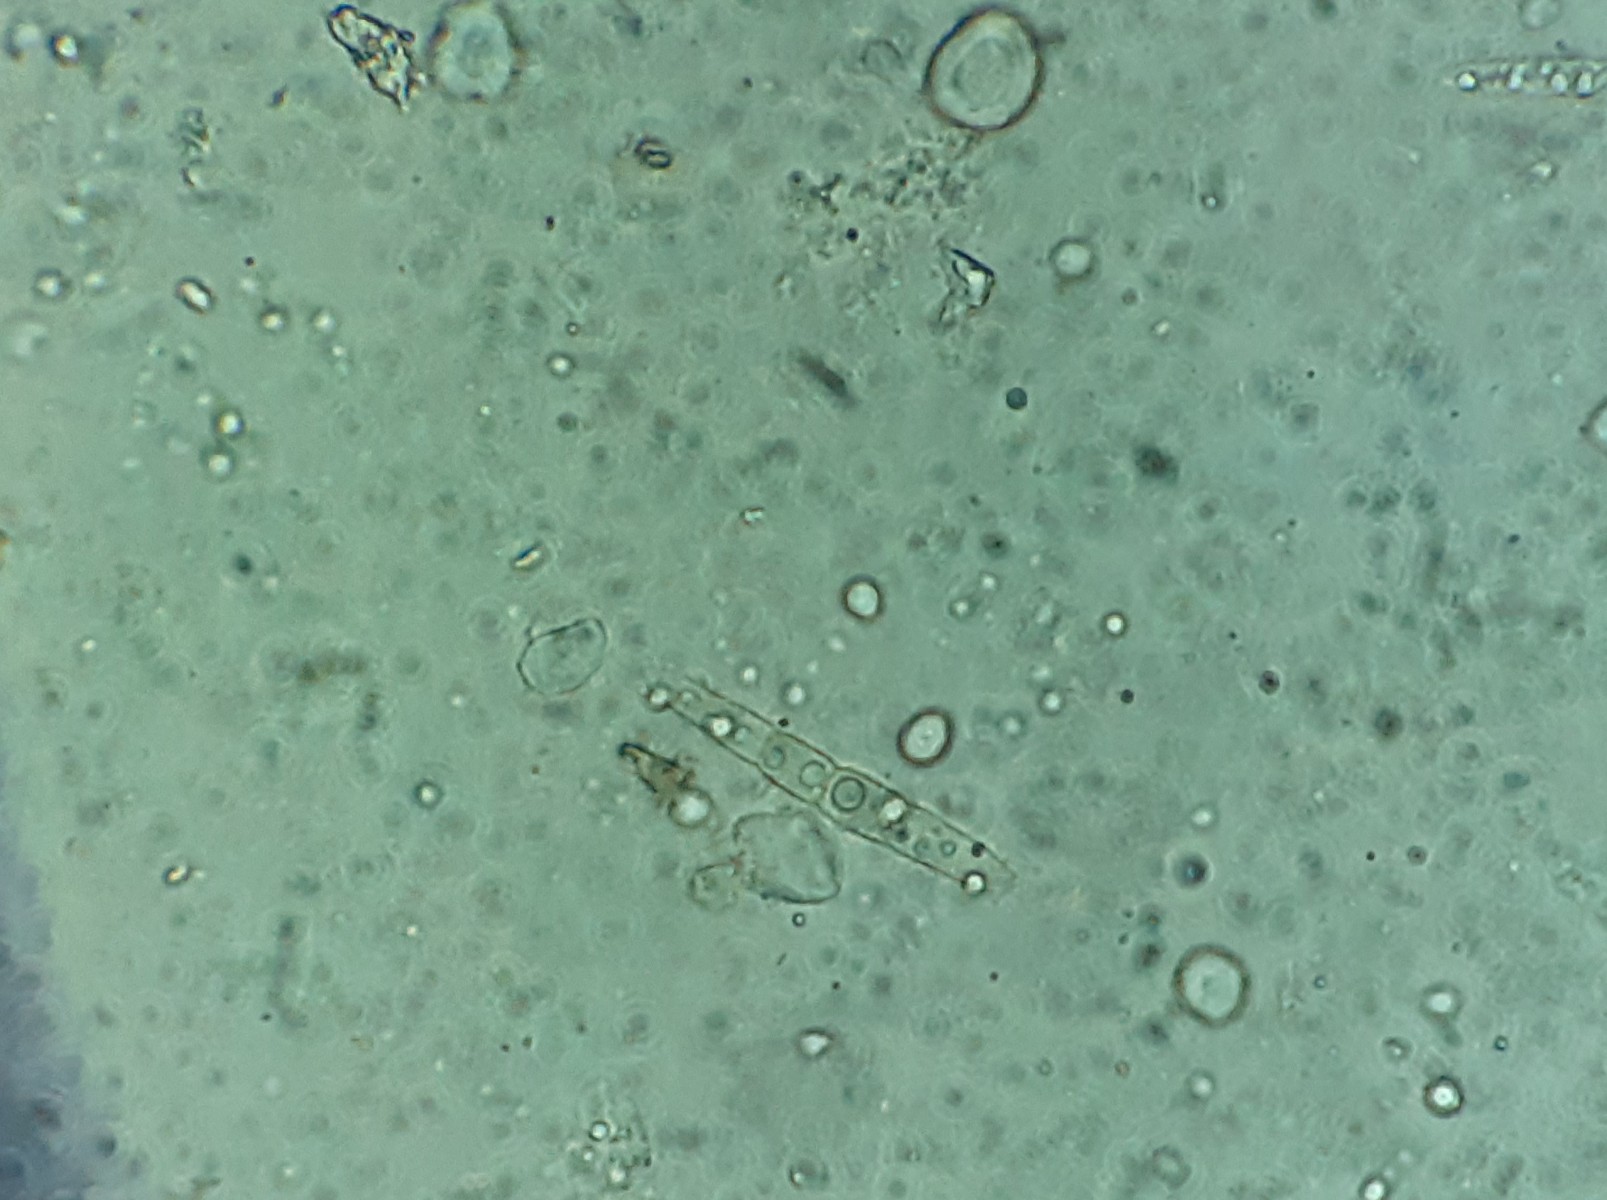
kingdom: Fungi
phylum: Ascomycota
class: Dothideomycetes
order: Pleosporales
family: Phaeosphaeriaceae
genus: Phaeosphaeria
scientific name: Phaeosphaeria sowerbyi
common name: kål-kulkegle
